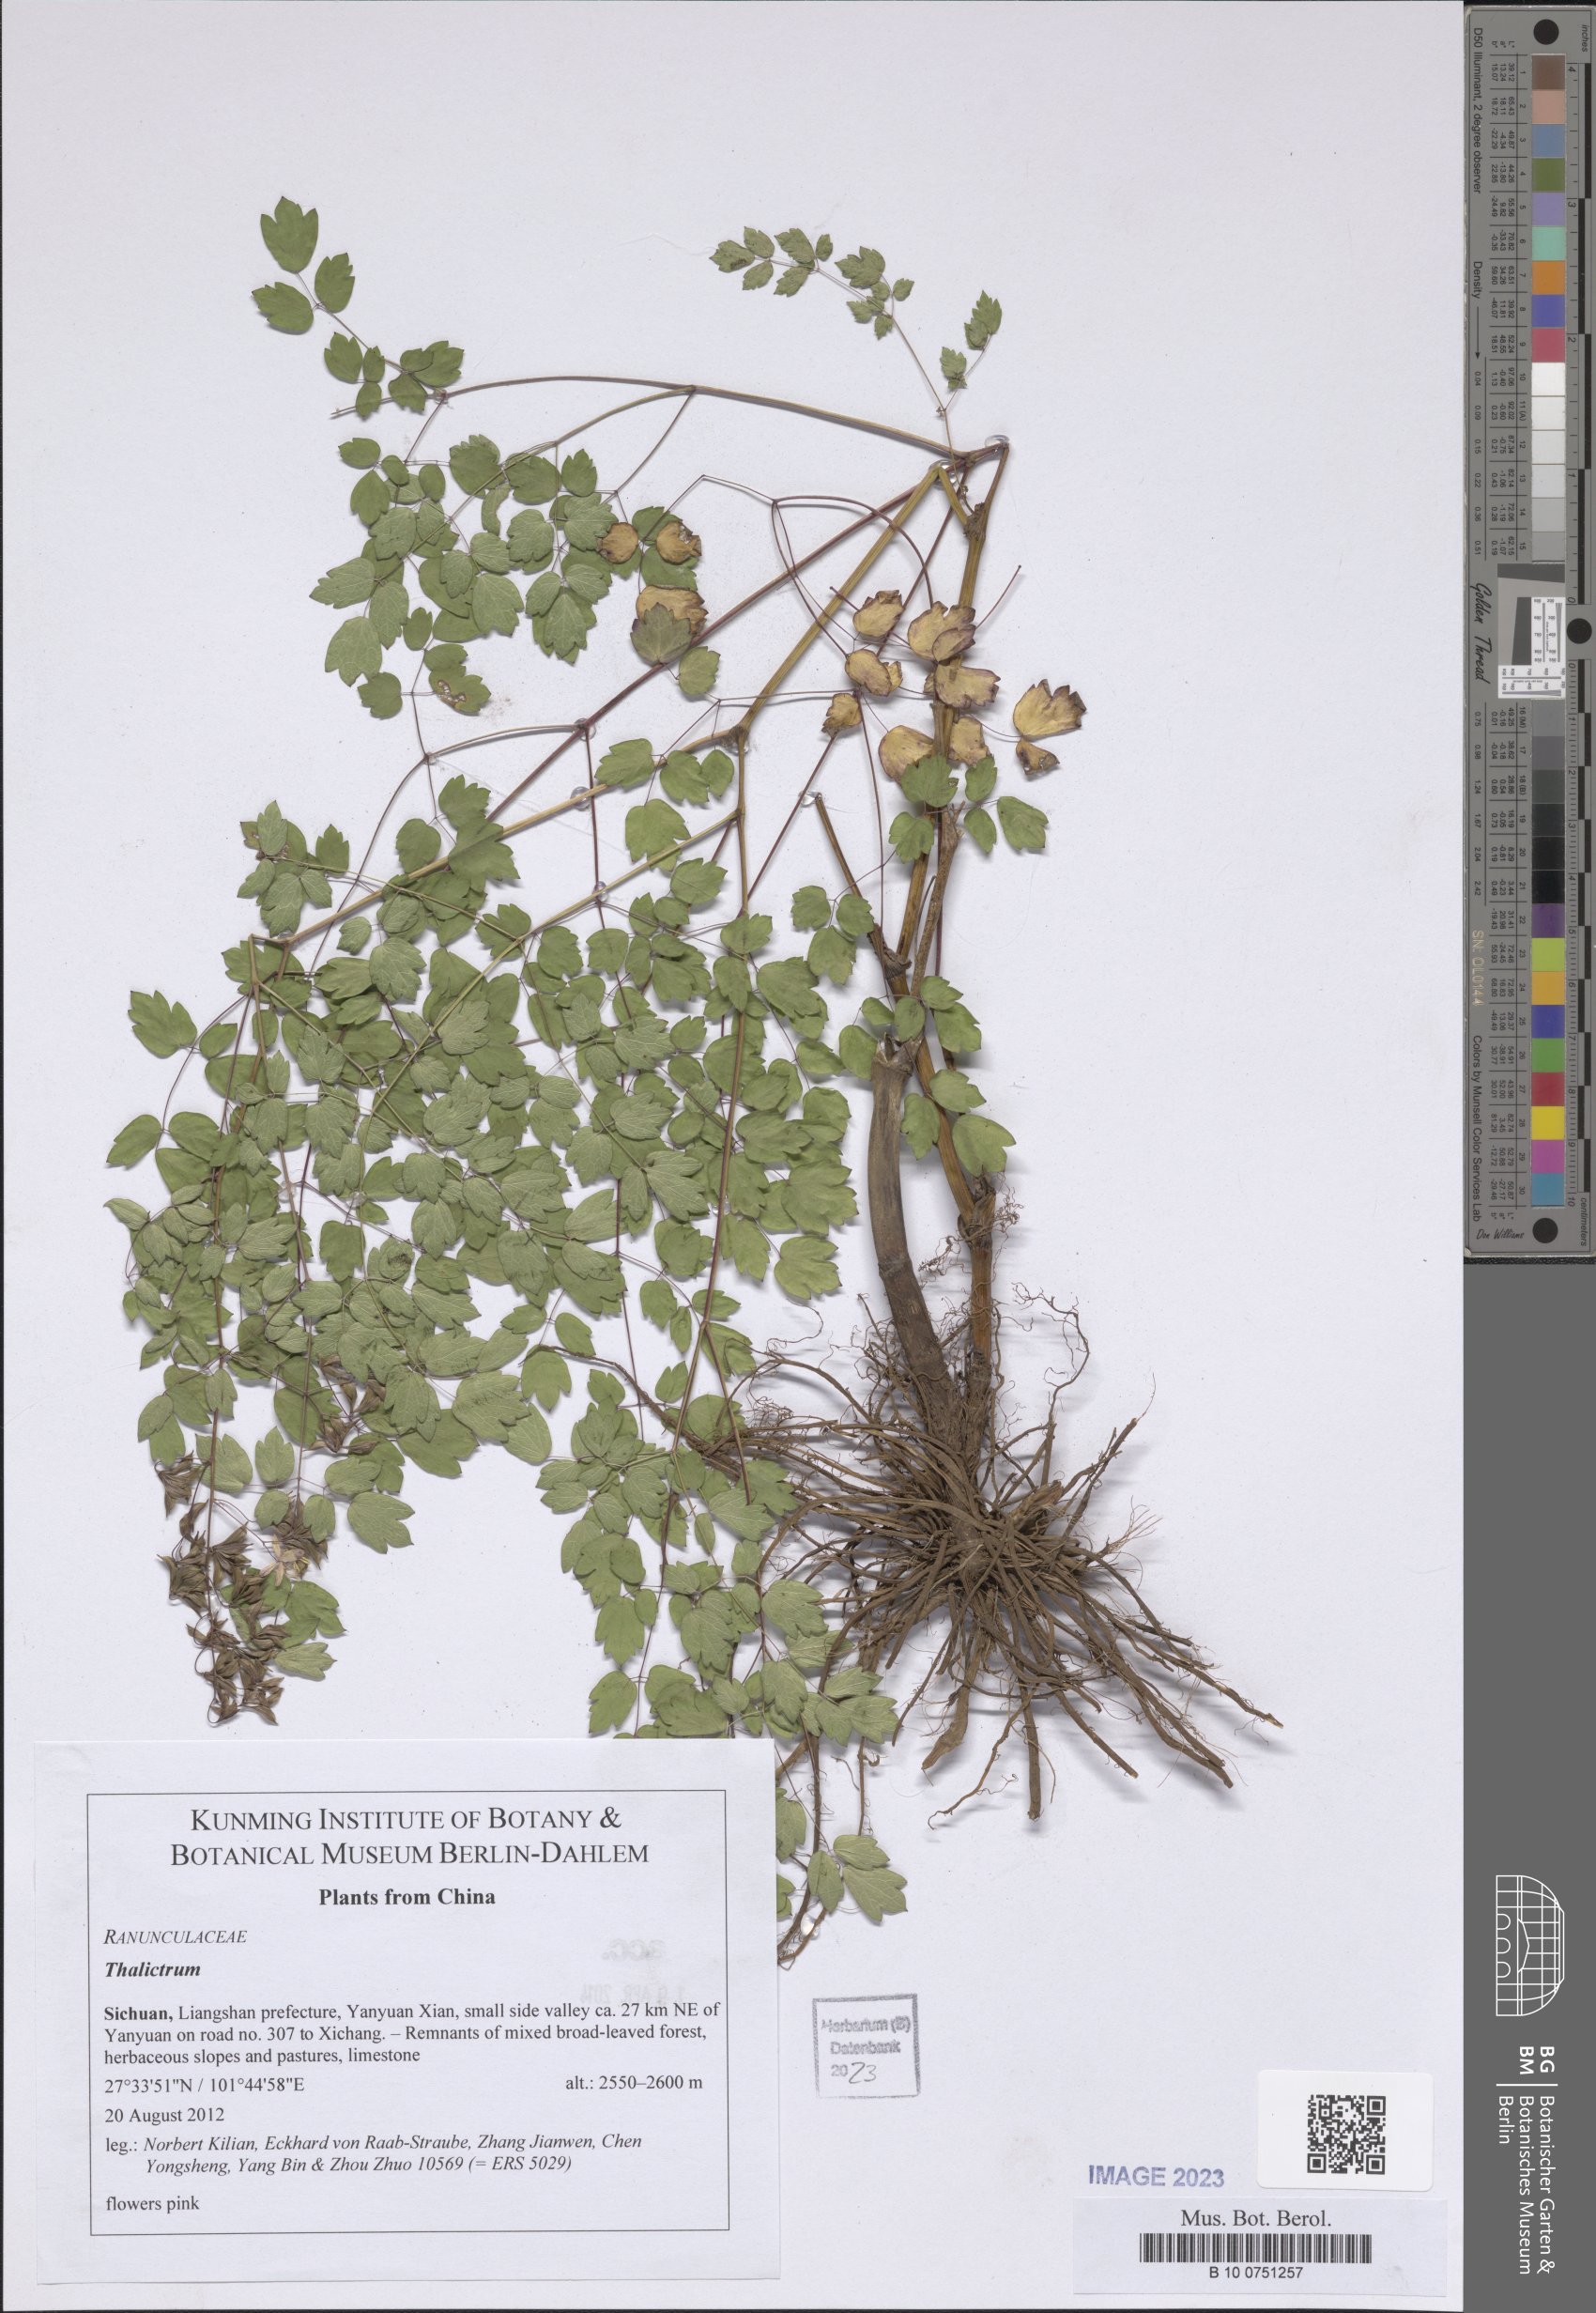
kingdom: Plantae
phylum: Tracheophyta
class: Magnoliopsida
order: Ranunculales
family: Ranunculaceae
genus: Thalictrum
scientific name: Thalictrum
